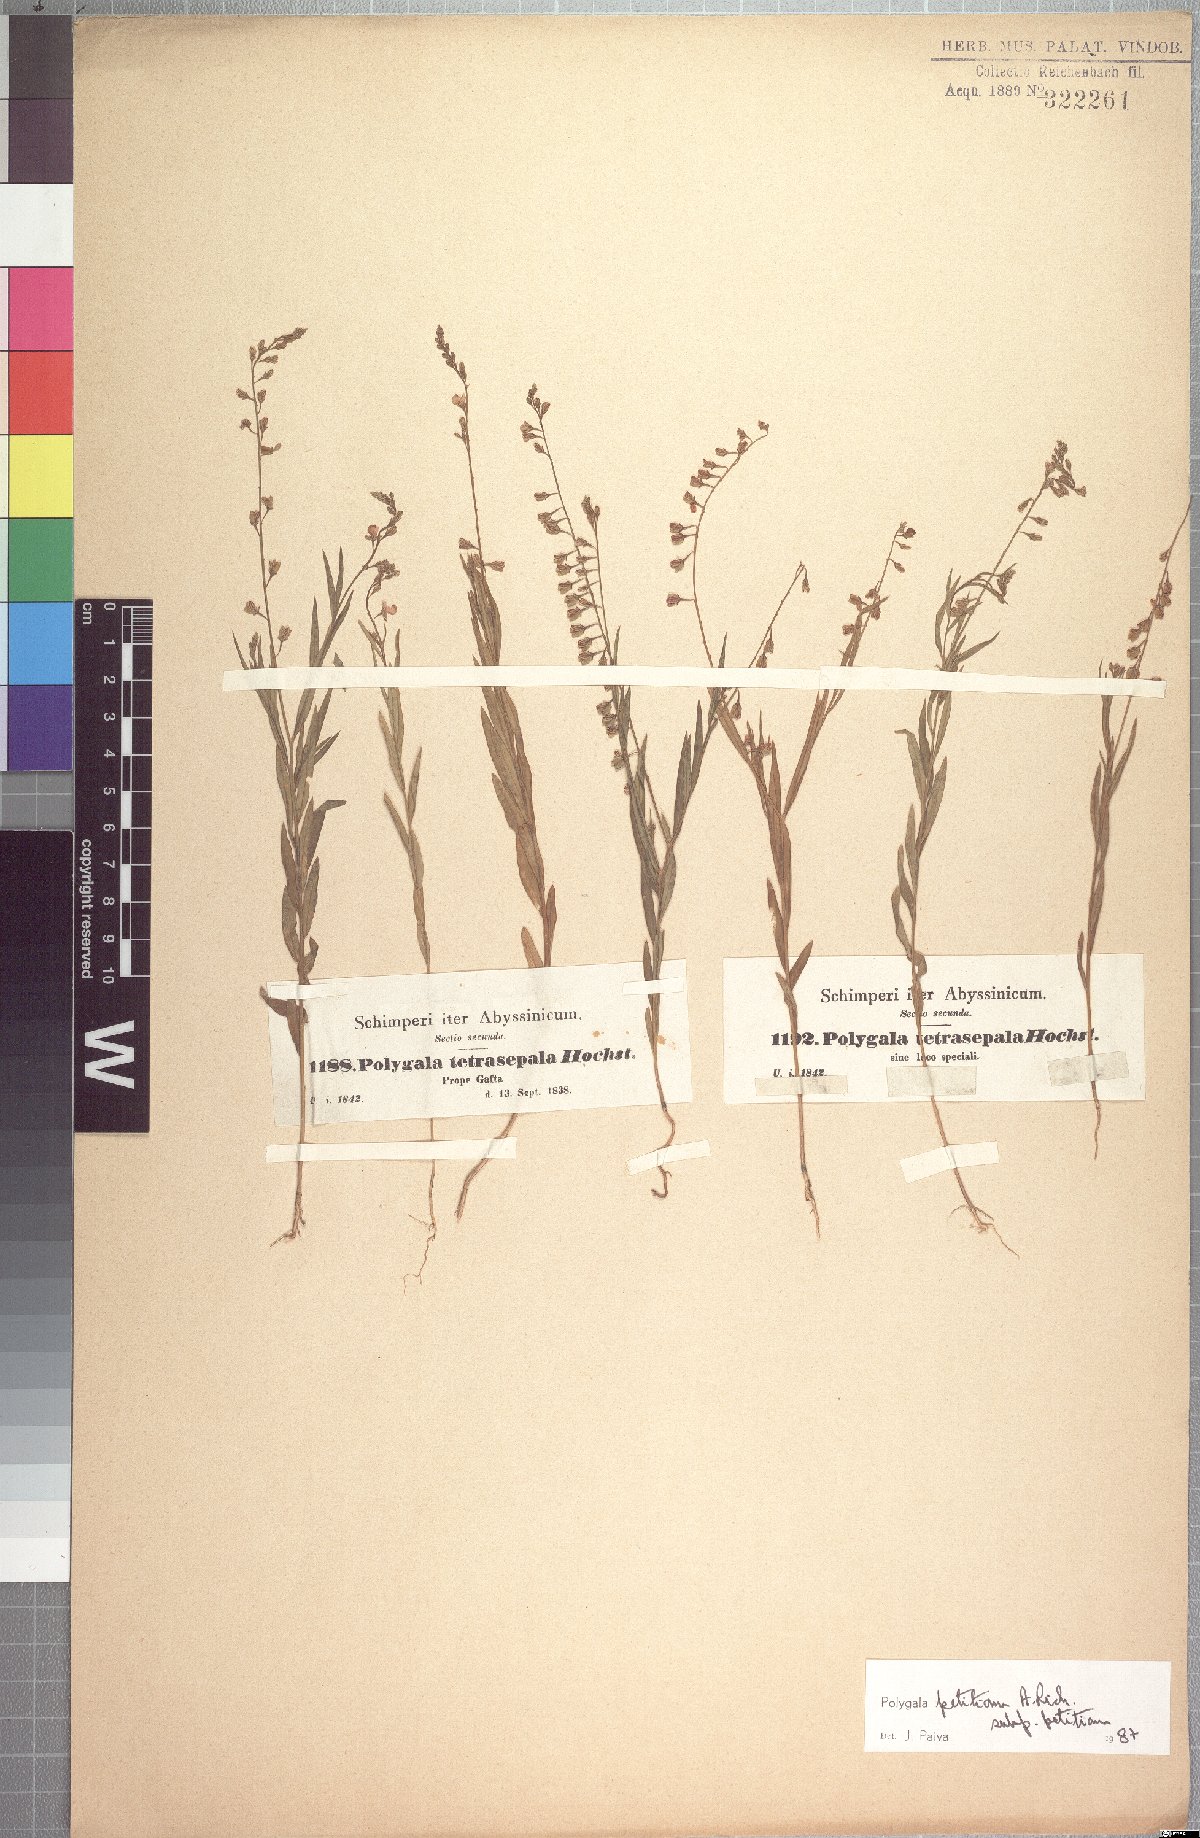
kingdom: Plantae
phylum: Tracheophyta
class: Magnoliopsida
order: Fabales
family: Polygalaceae
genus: Polygala
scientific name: Polygala petitiana
